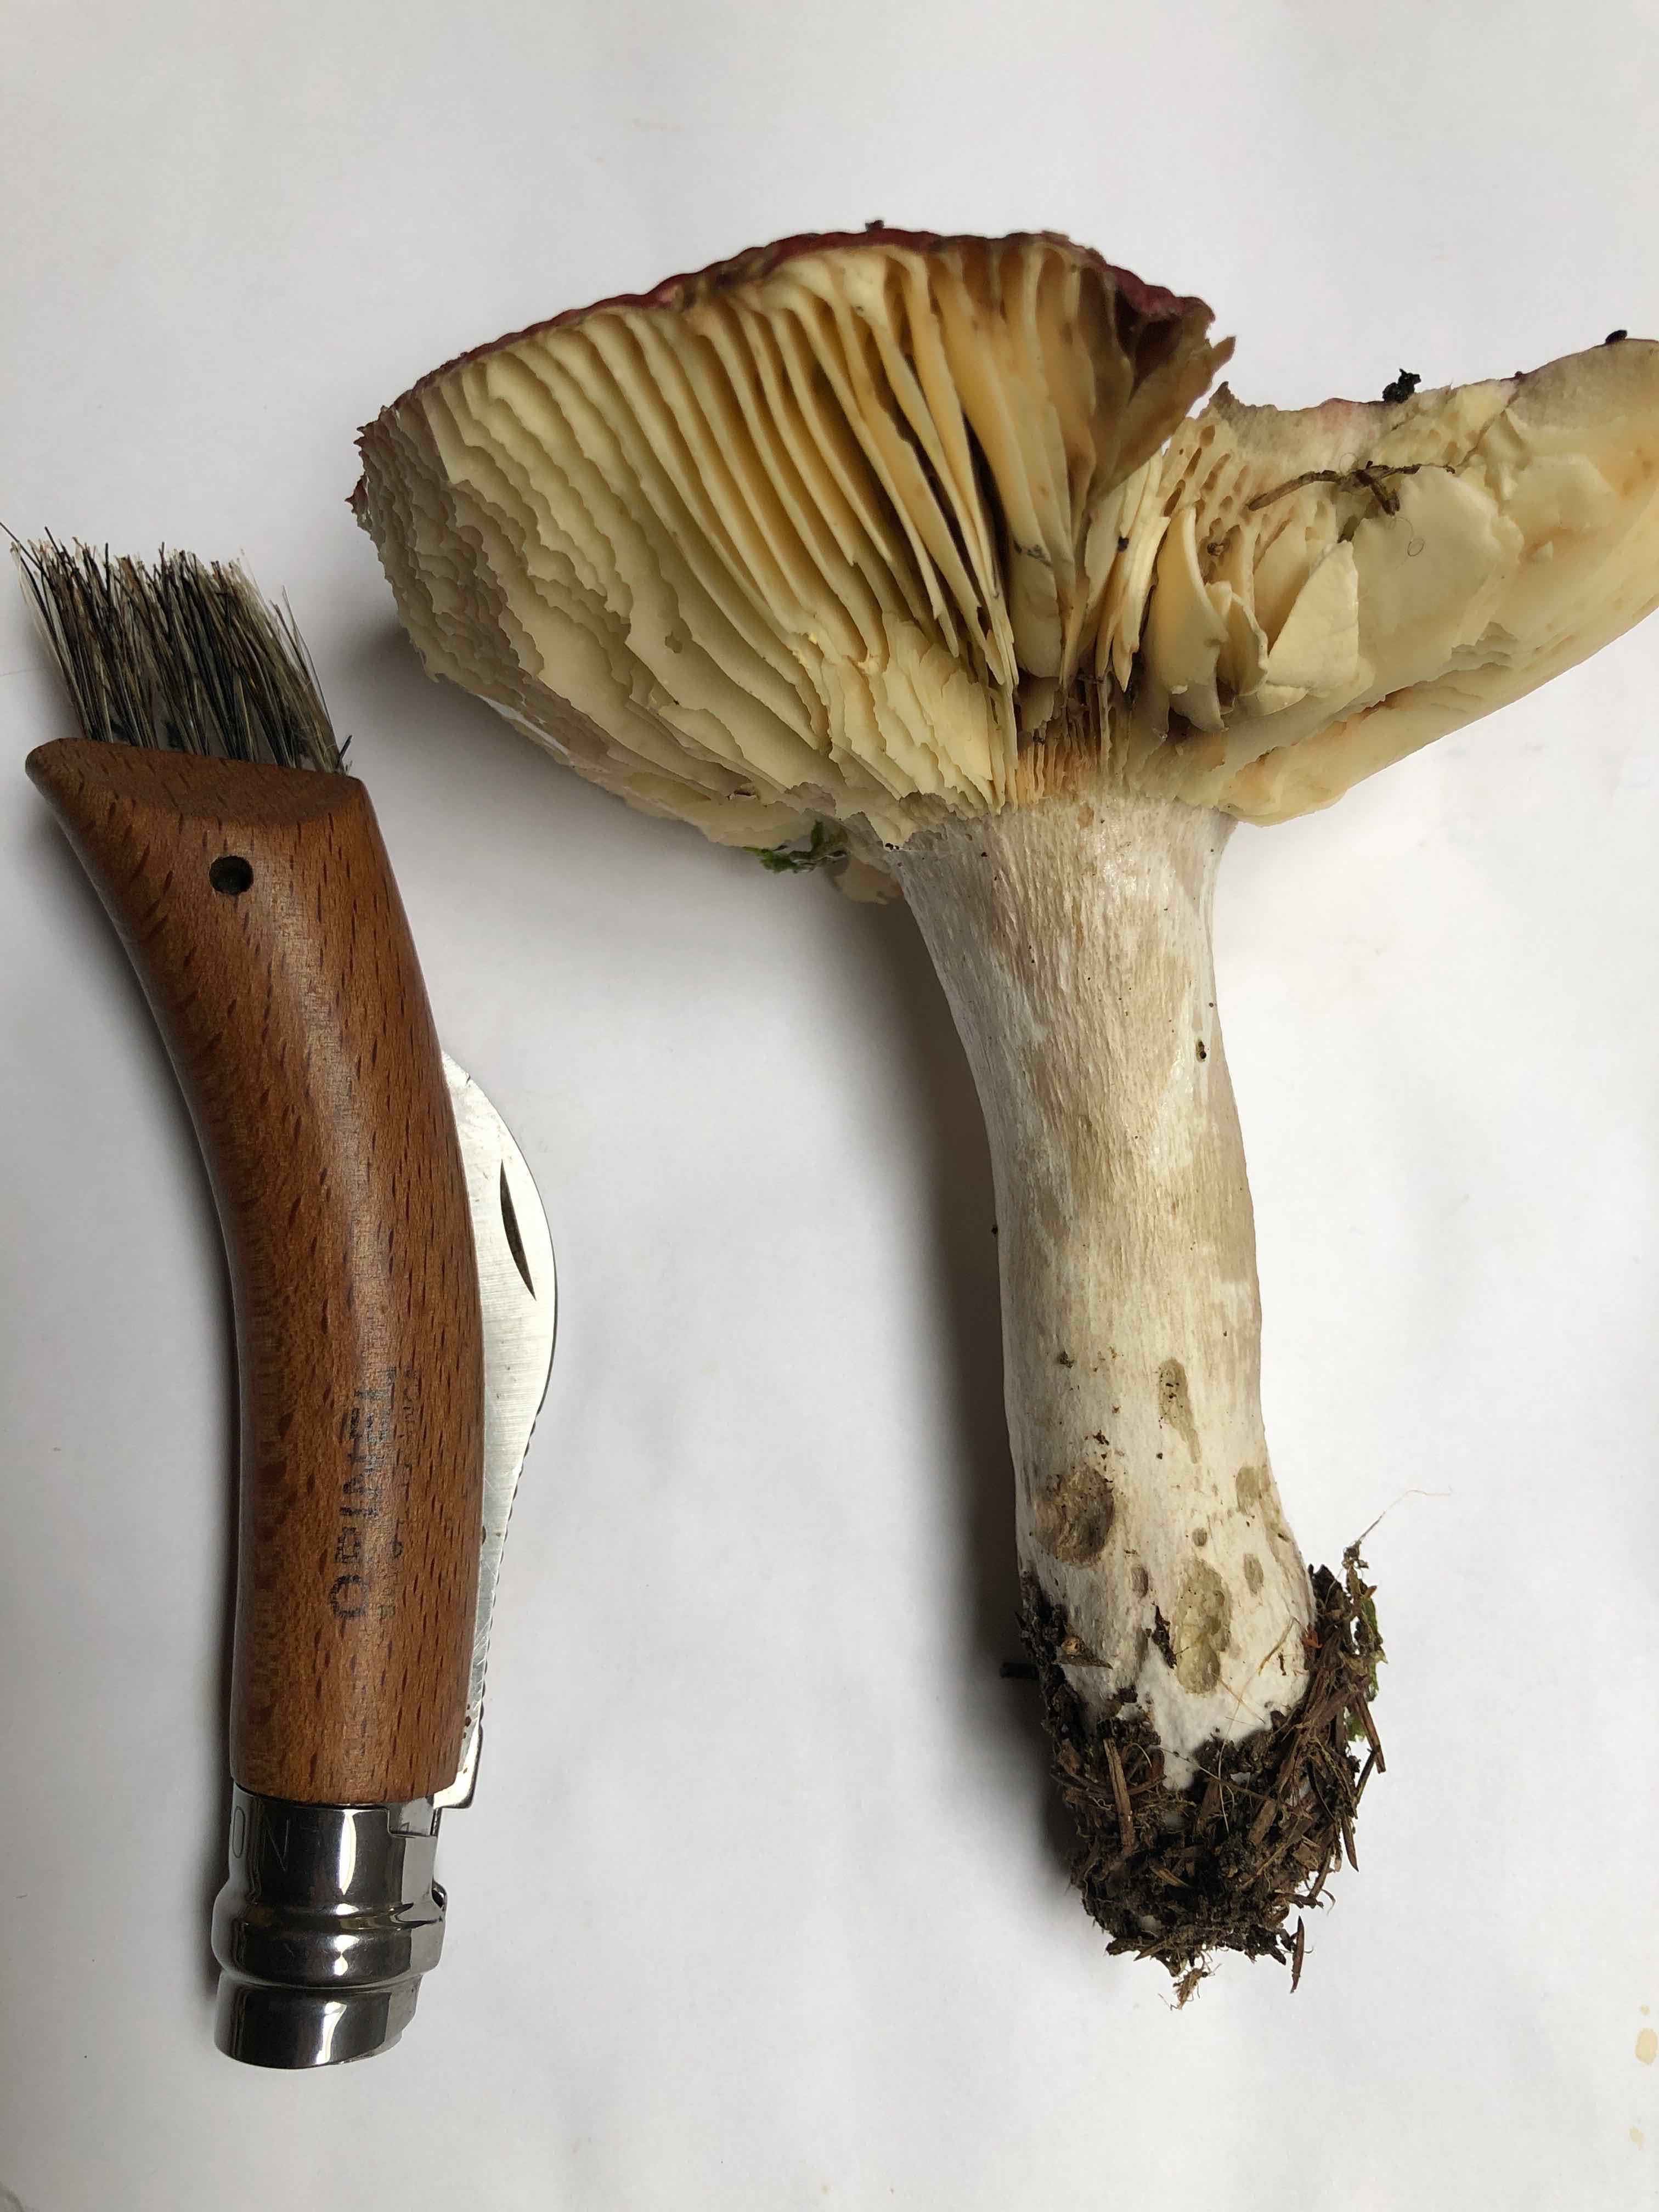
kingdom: Fungi
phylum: Basidiomycota
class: Agaricomycetes
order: Russulales
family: Russulaceae
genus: Russula
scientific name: Russula
